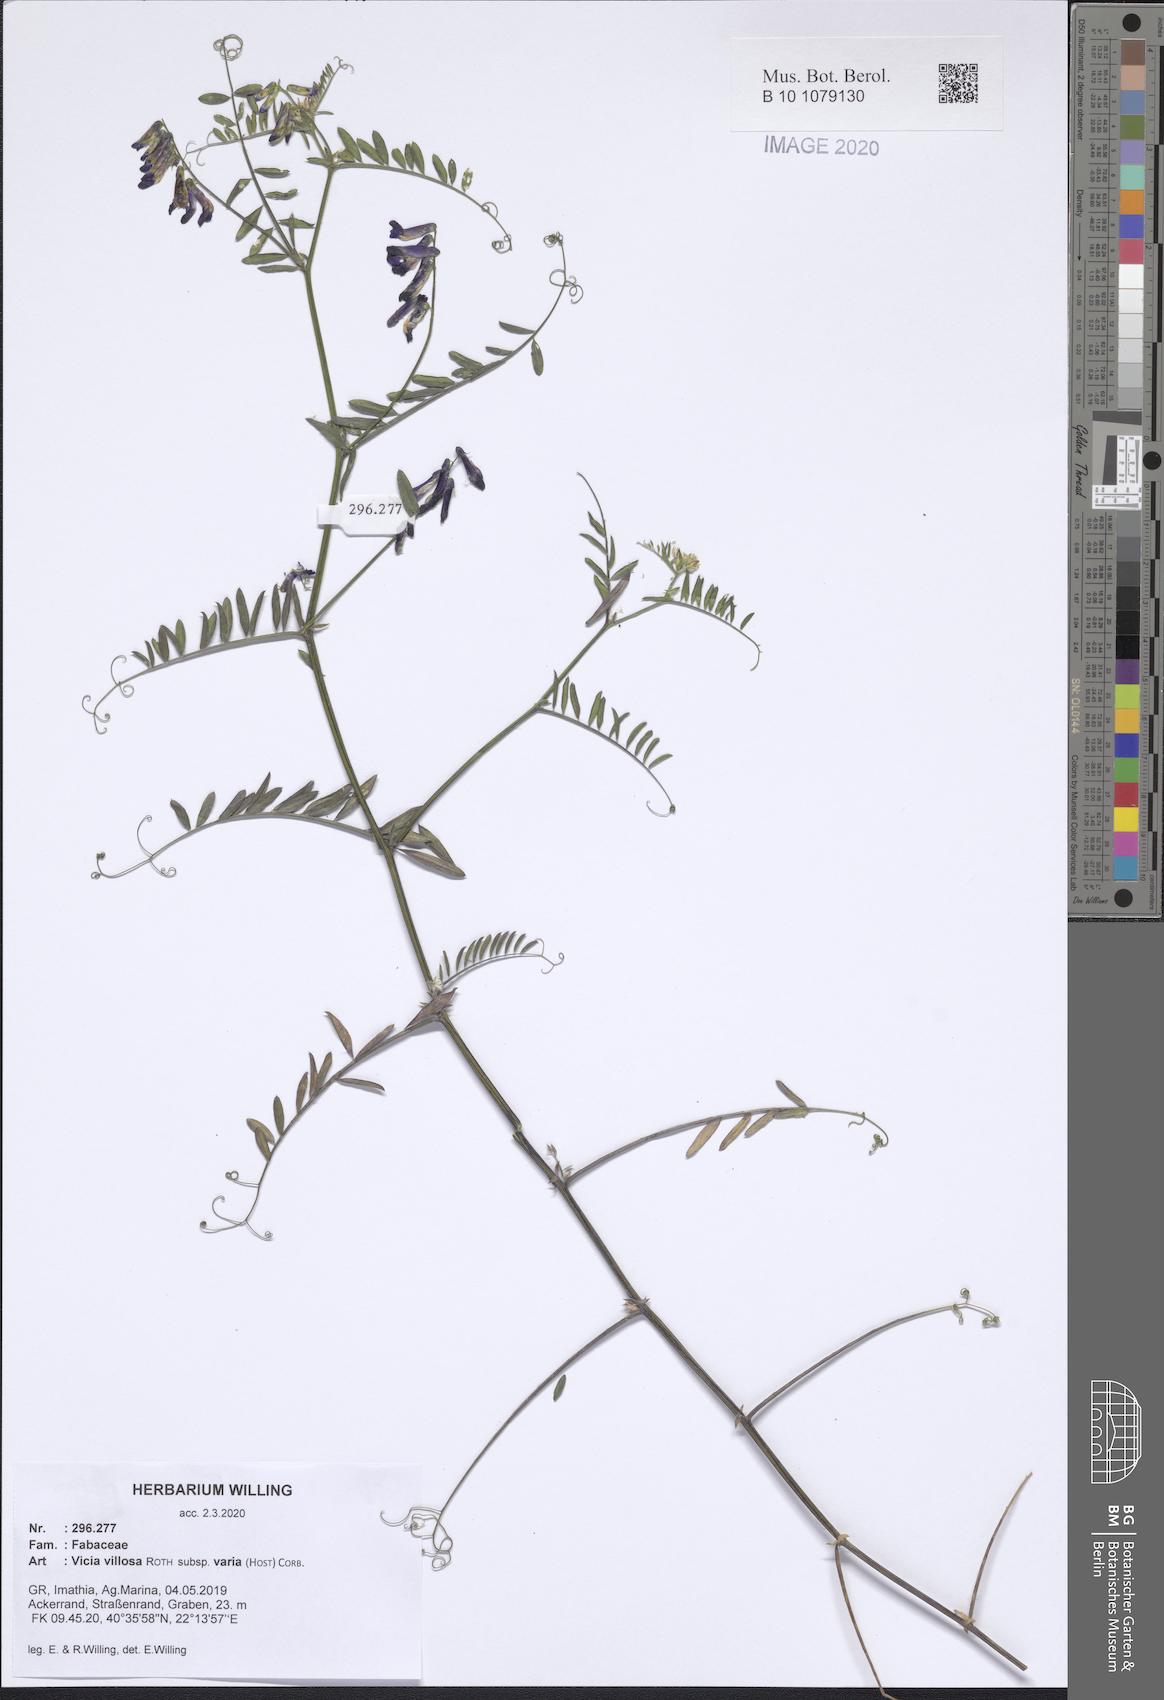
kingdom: Plantae
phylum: Tracheophyta
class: Magnoliopsida
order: Fabales
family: Fabaceae
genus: Vicia
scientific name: Vicia villosa
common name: Fodder vetch
